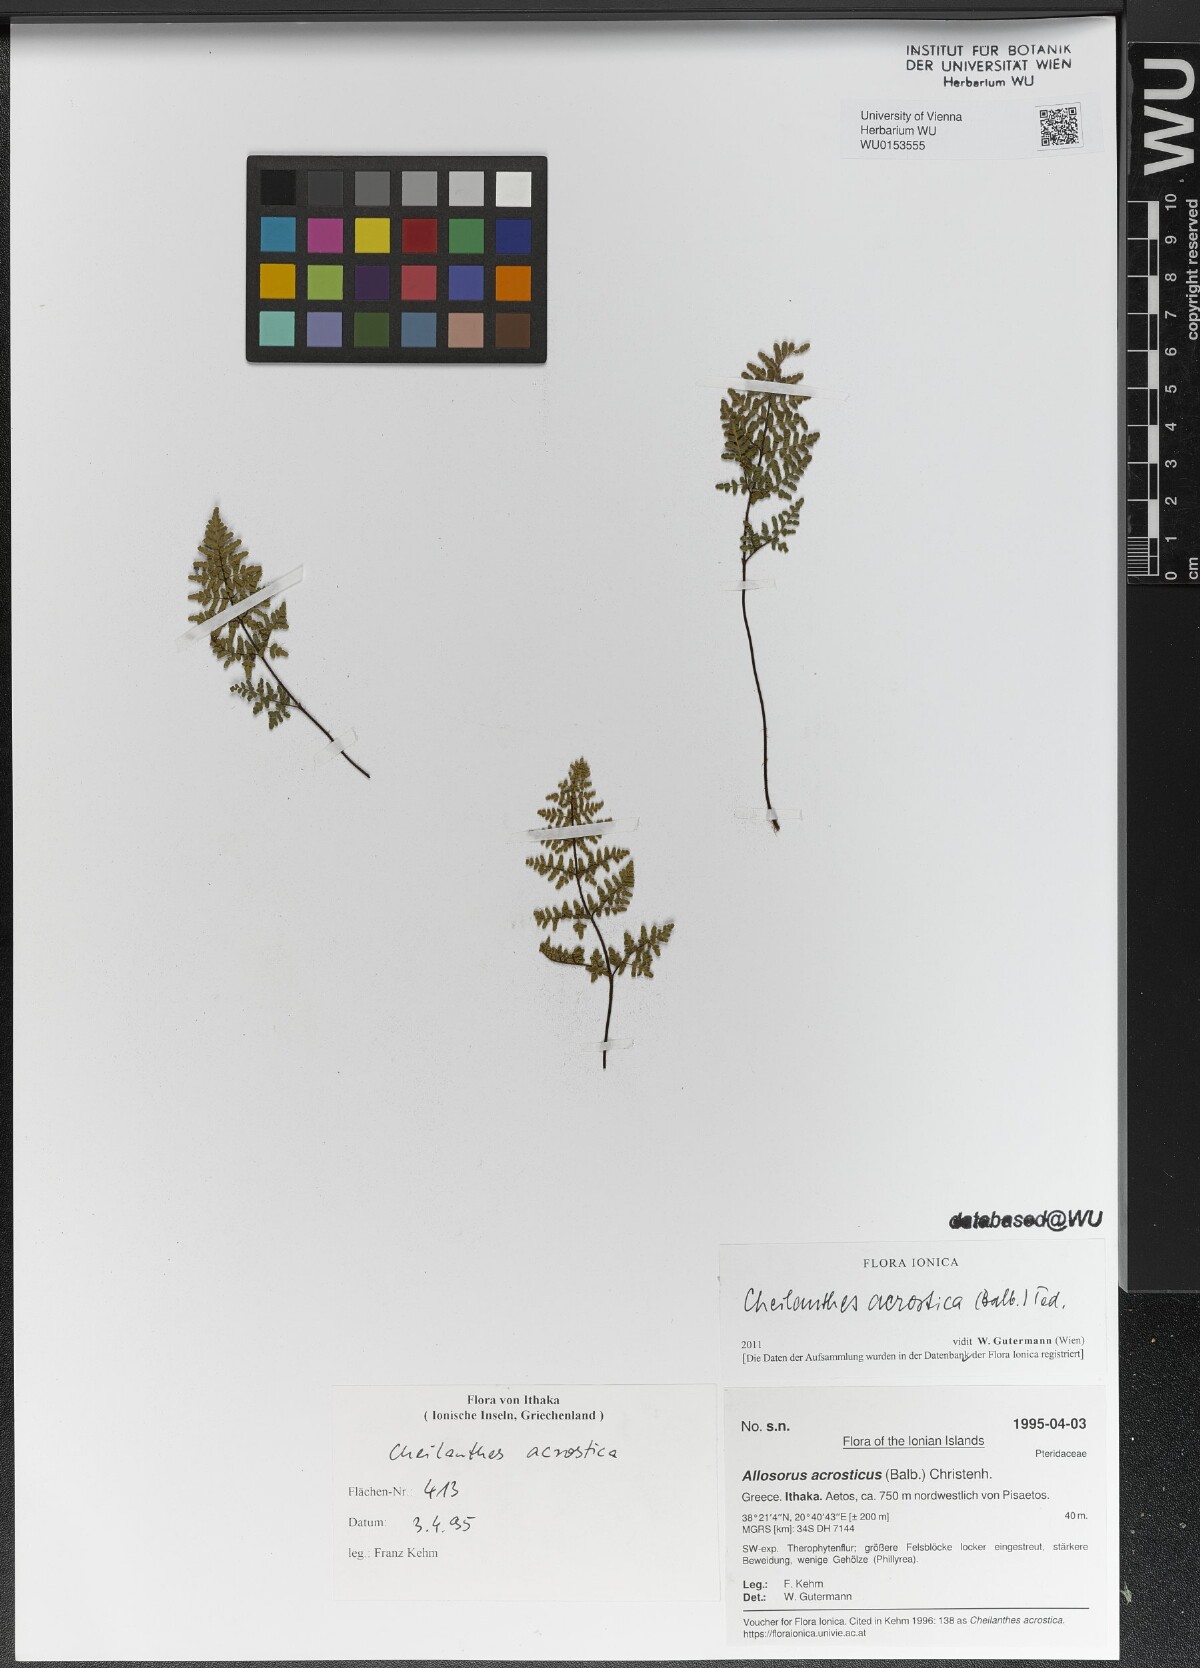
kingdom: Plantae
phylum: Tracheophyta
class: Polypodiopsida
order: Polypodiales
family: Pteridaceae
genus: Oeosporangium
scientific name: Oeosporangium pteridioides
